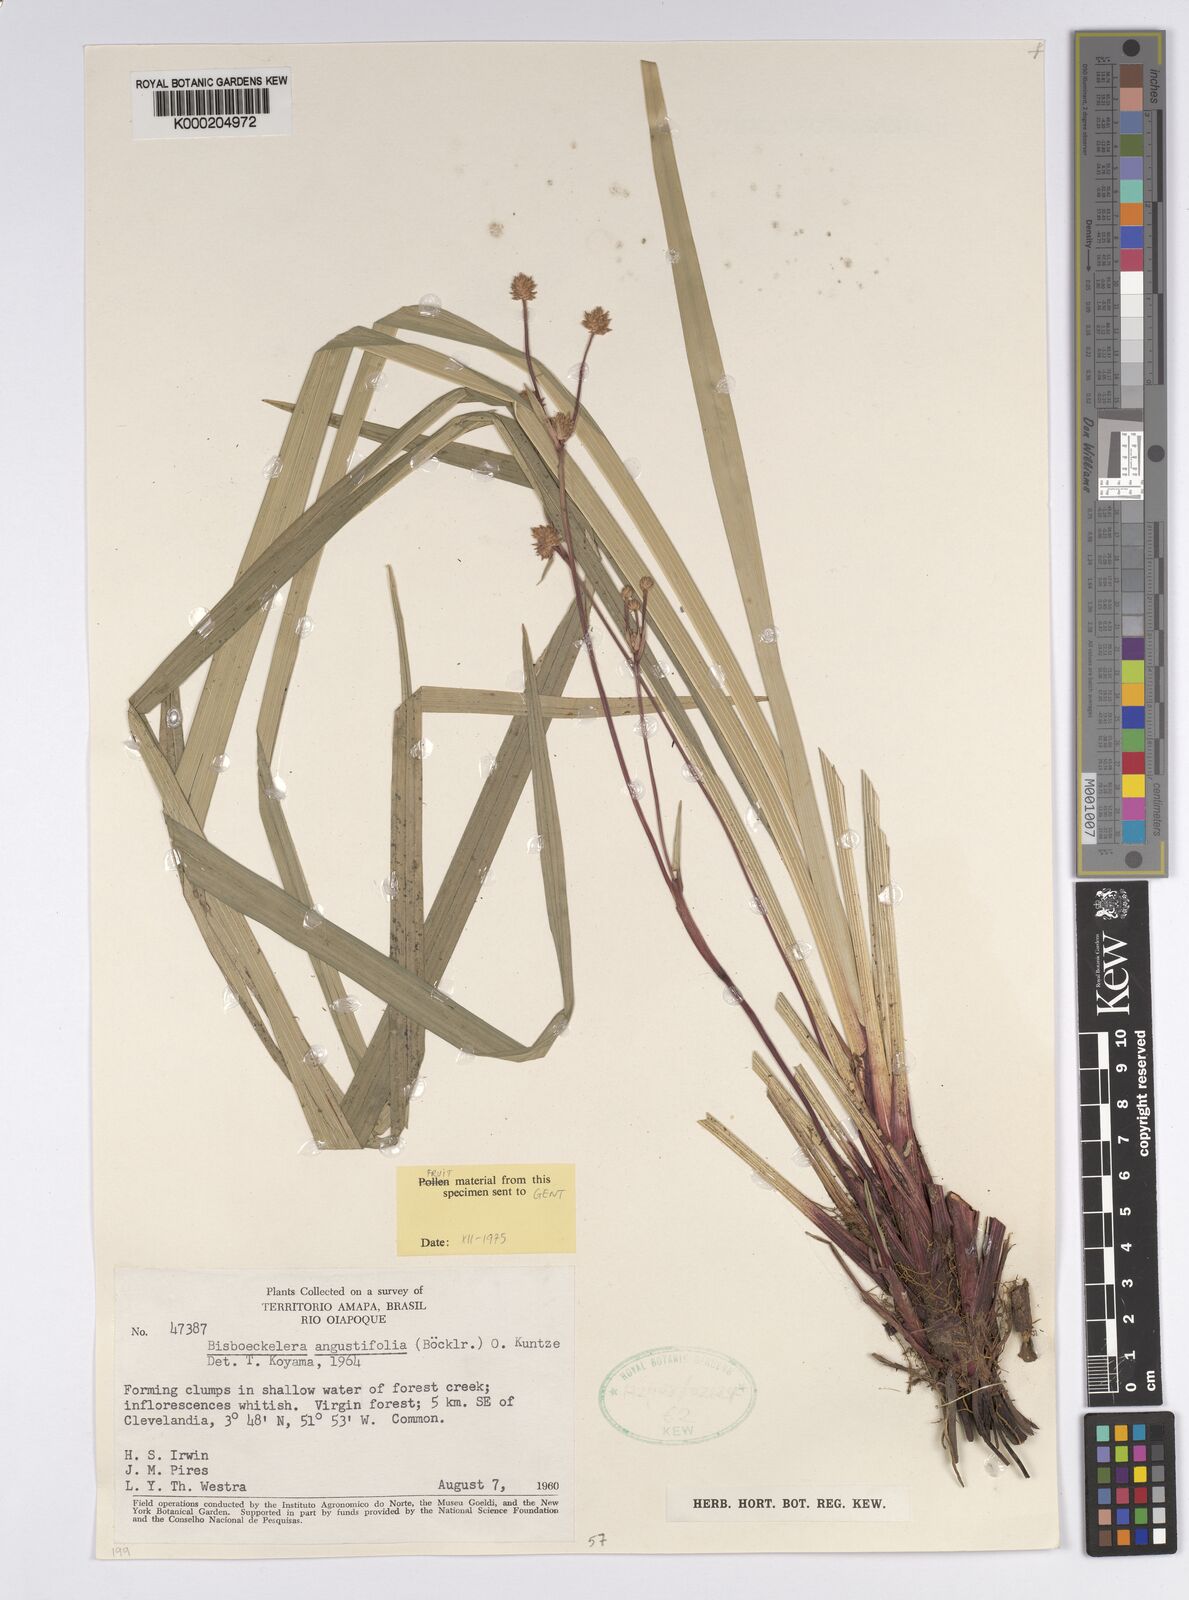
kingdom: Plantae
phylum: Tracheophyta
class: Liliopsida
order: Poales
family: Cyperaceae
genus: Bisboeckelera
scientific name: Bisboeckelera longifolia
